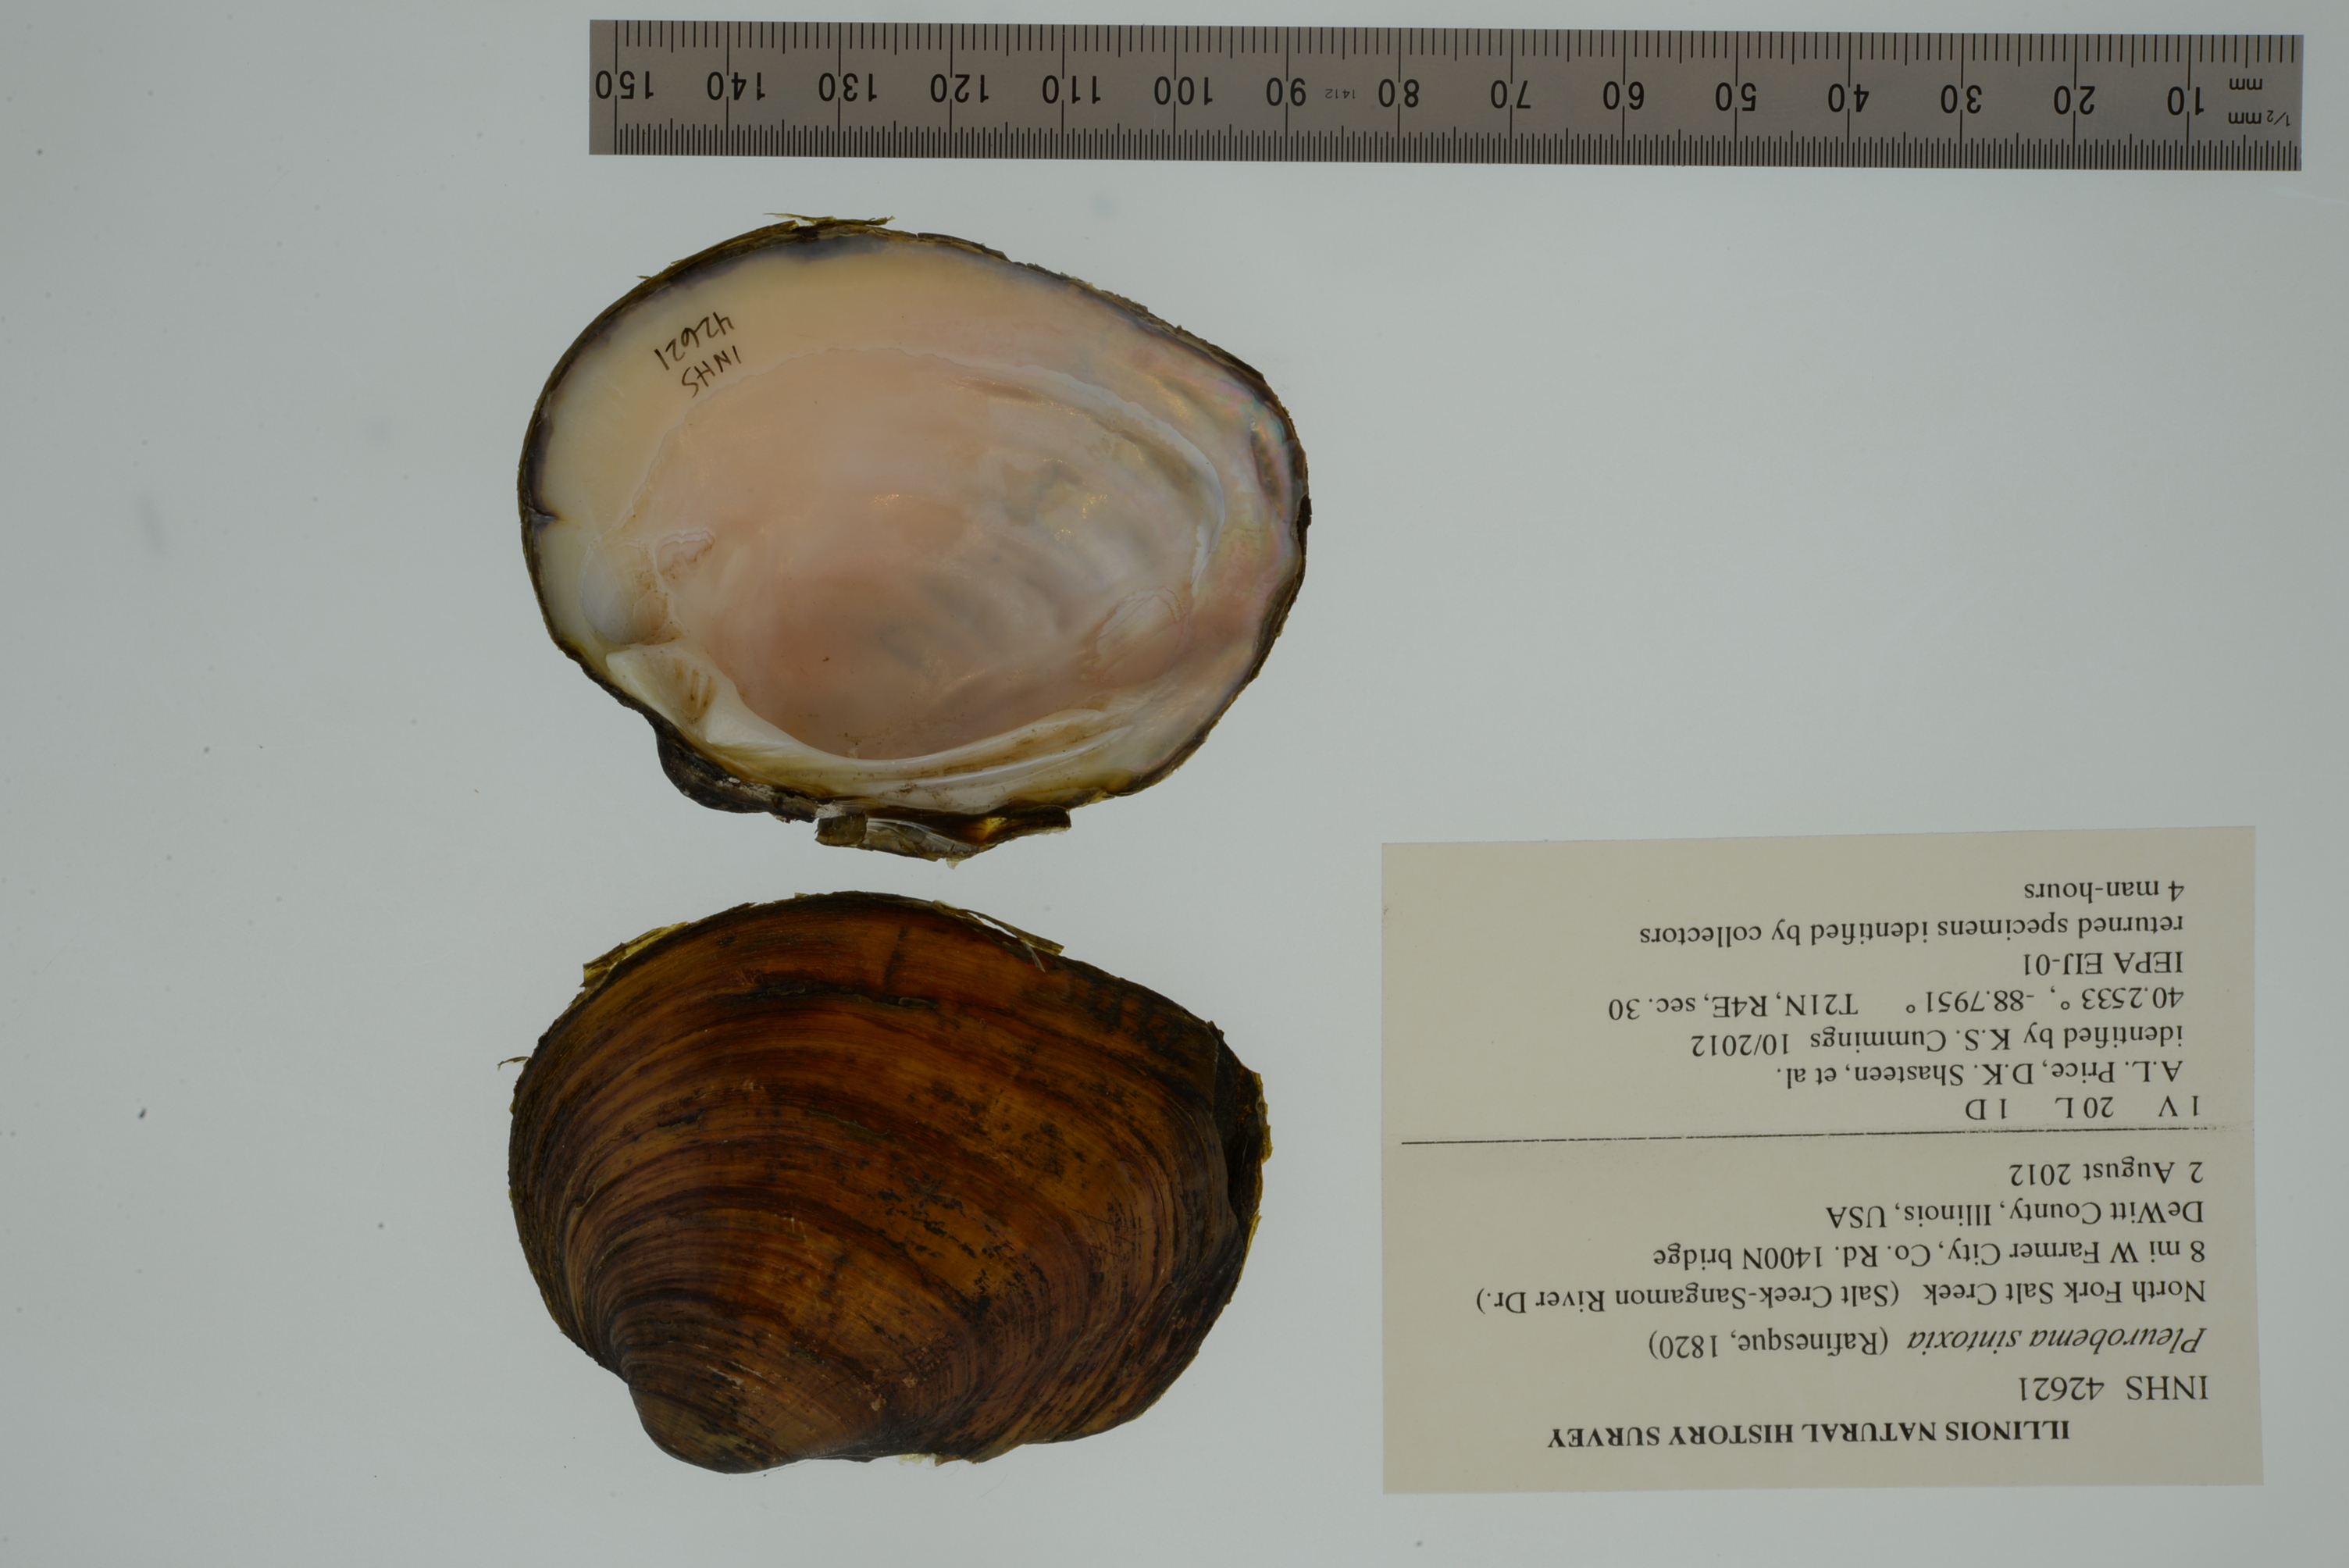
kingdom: Animalia
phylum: Mollusca
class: Bivalvia
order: Unionida
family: Unionidae
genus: Pleurobema
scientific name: Pleurobema sintoxia
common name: Round pigtoe
